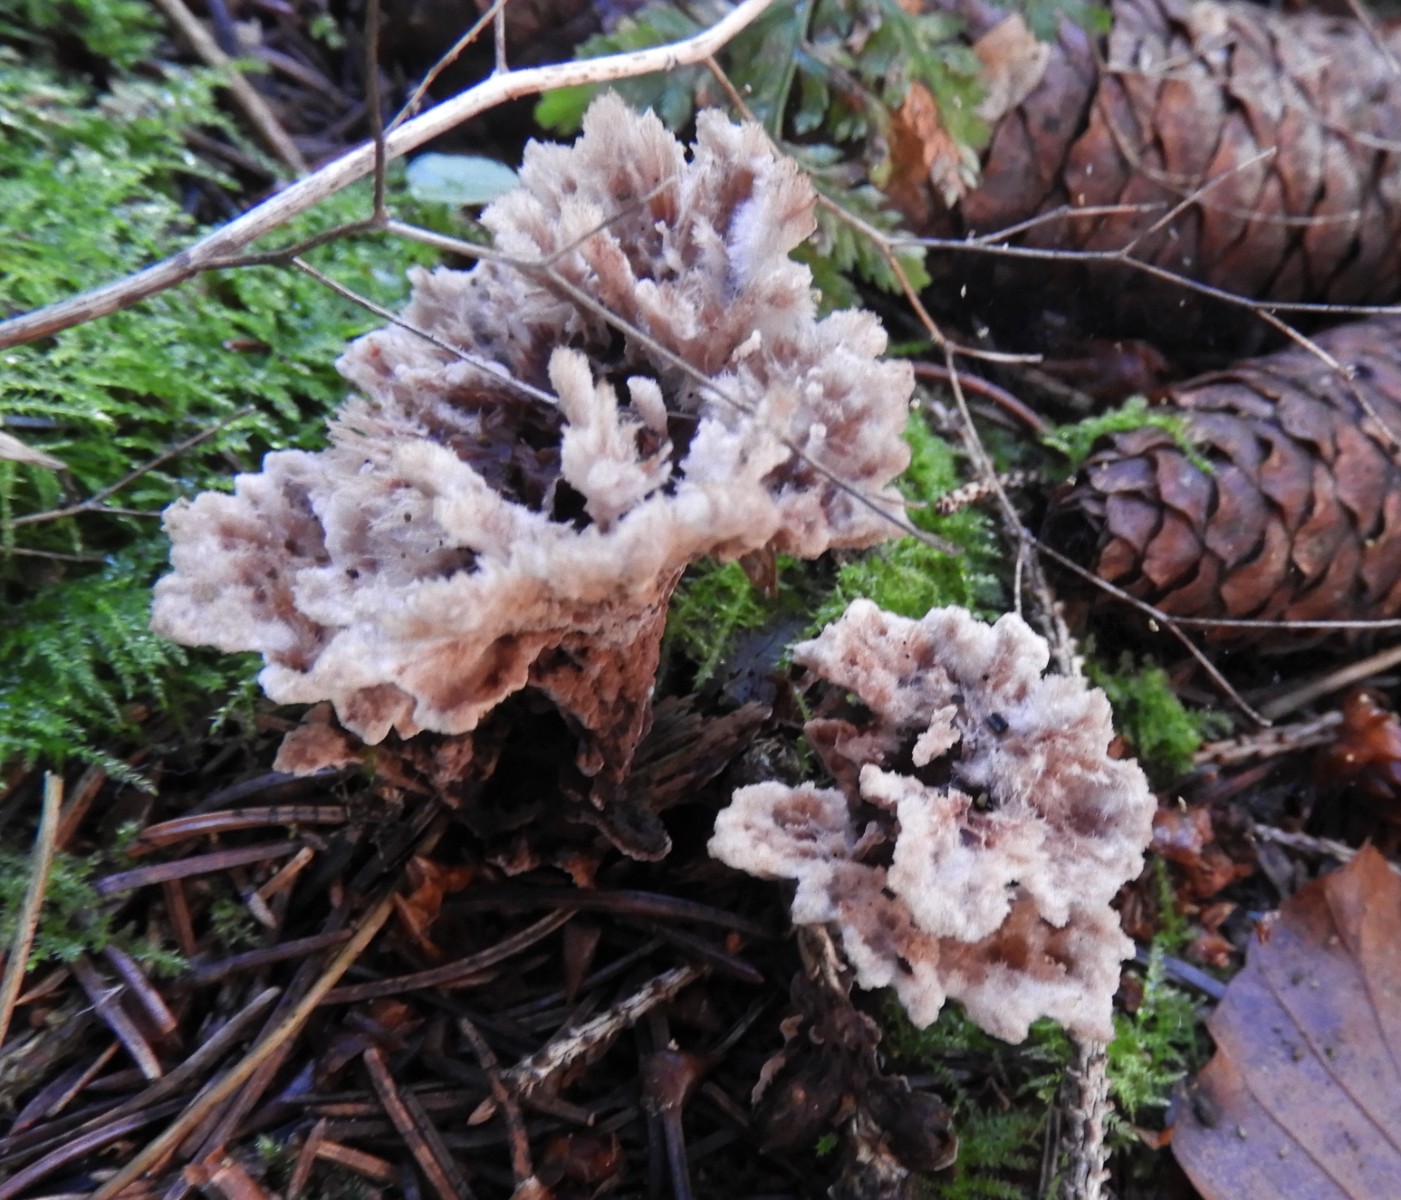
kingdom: Fungi
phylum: Basidiomycota
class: Agaricomycetes
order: Thelephorales
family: Thelephoraceae
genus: Thelephora
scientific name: Thelephora terrestris
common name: fliget frynsesvamp
